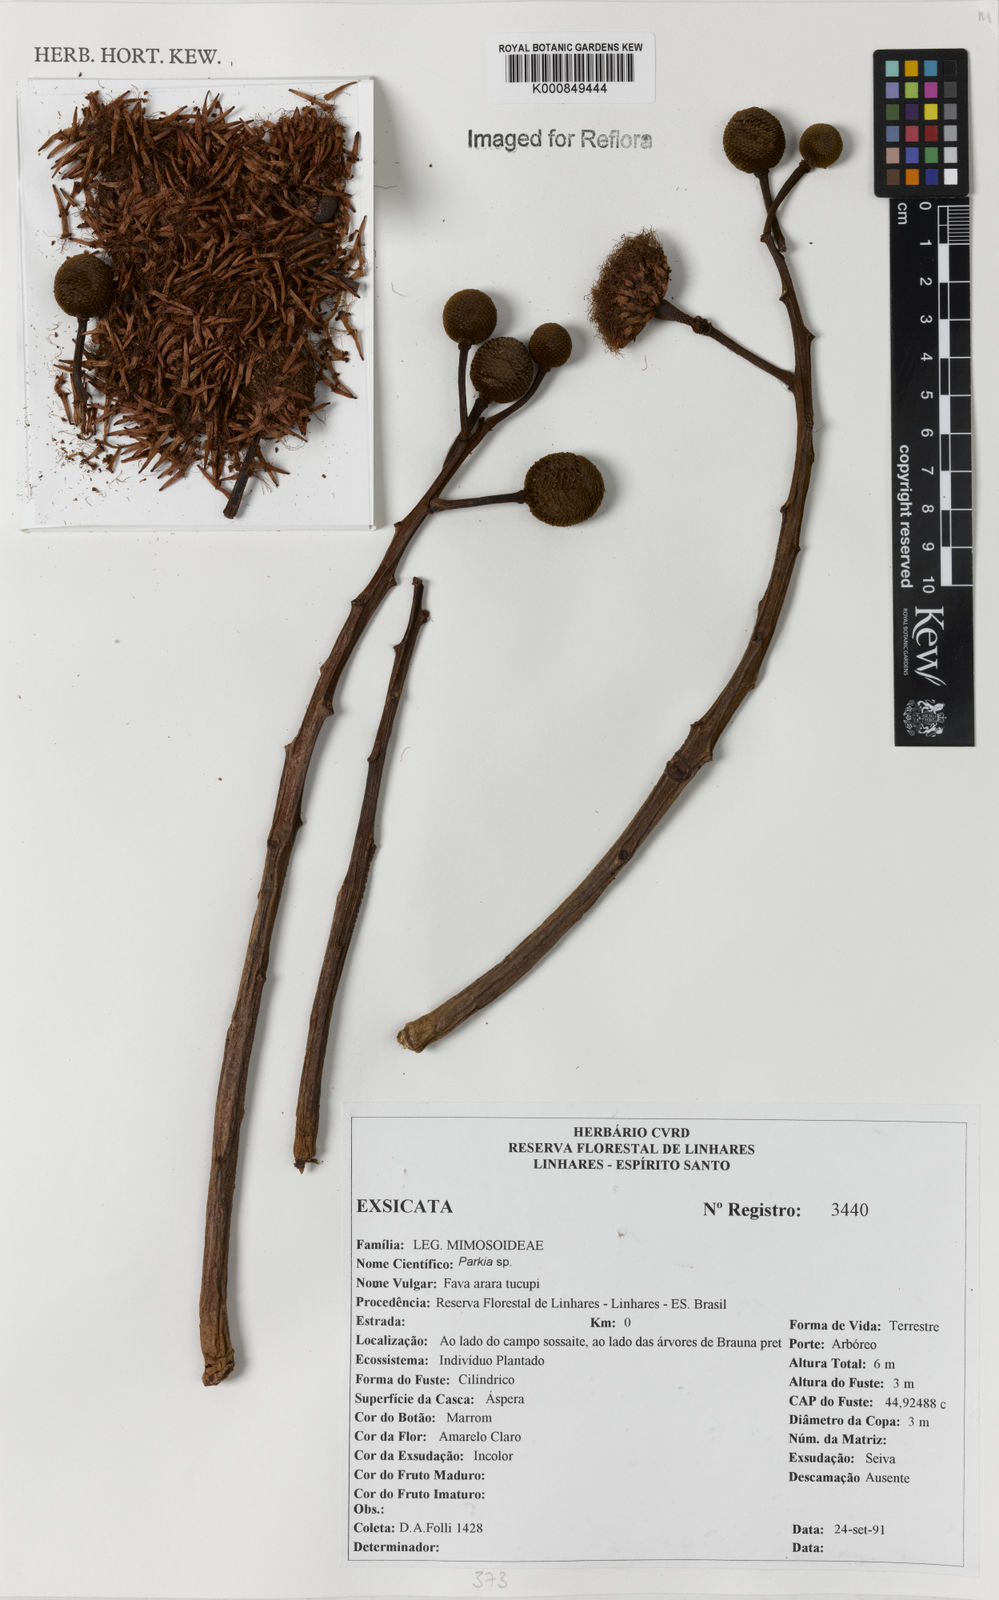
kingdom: Plantae
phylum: Tracheophyta
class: Magnoliopsida
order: Fabales
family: Fabaceae
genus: Parkia
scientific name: Parkia
